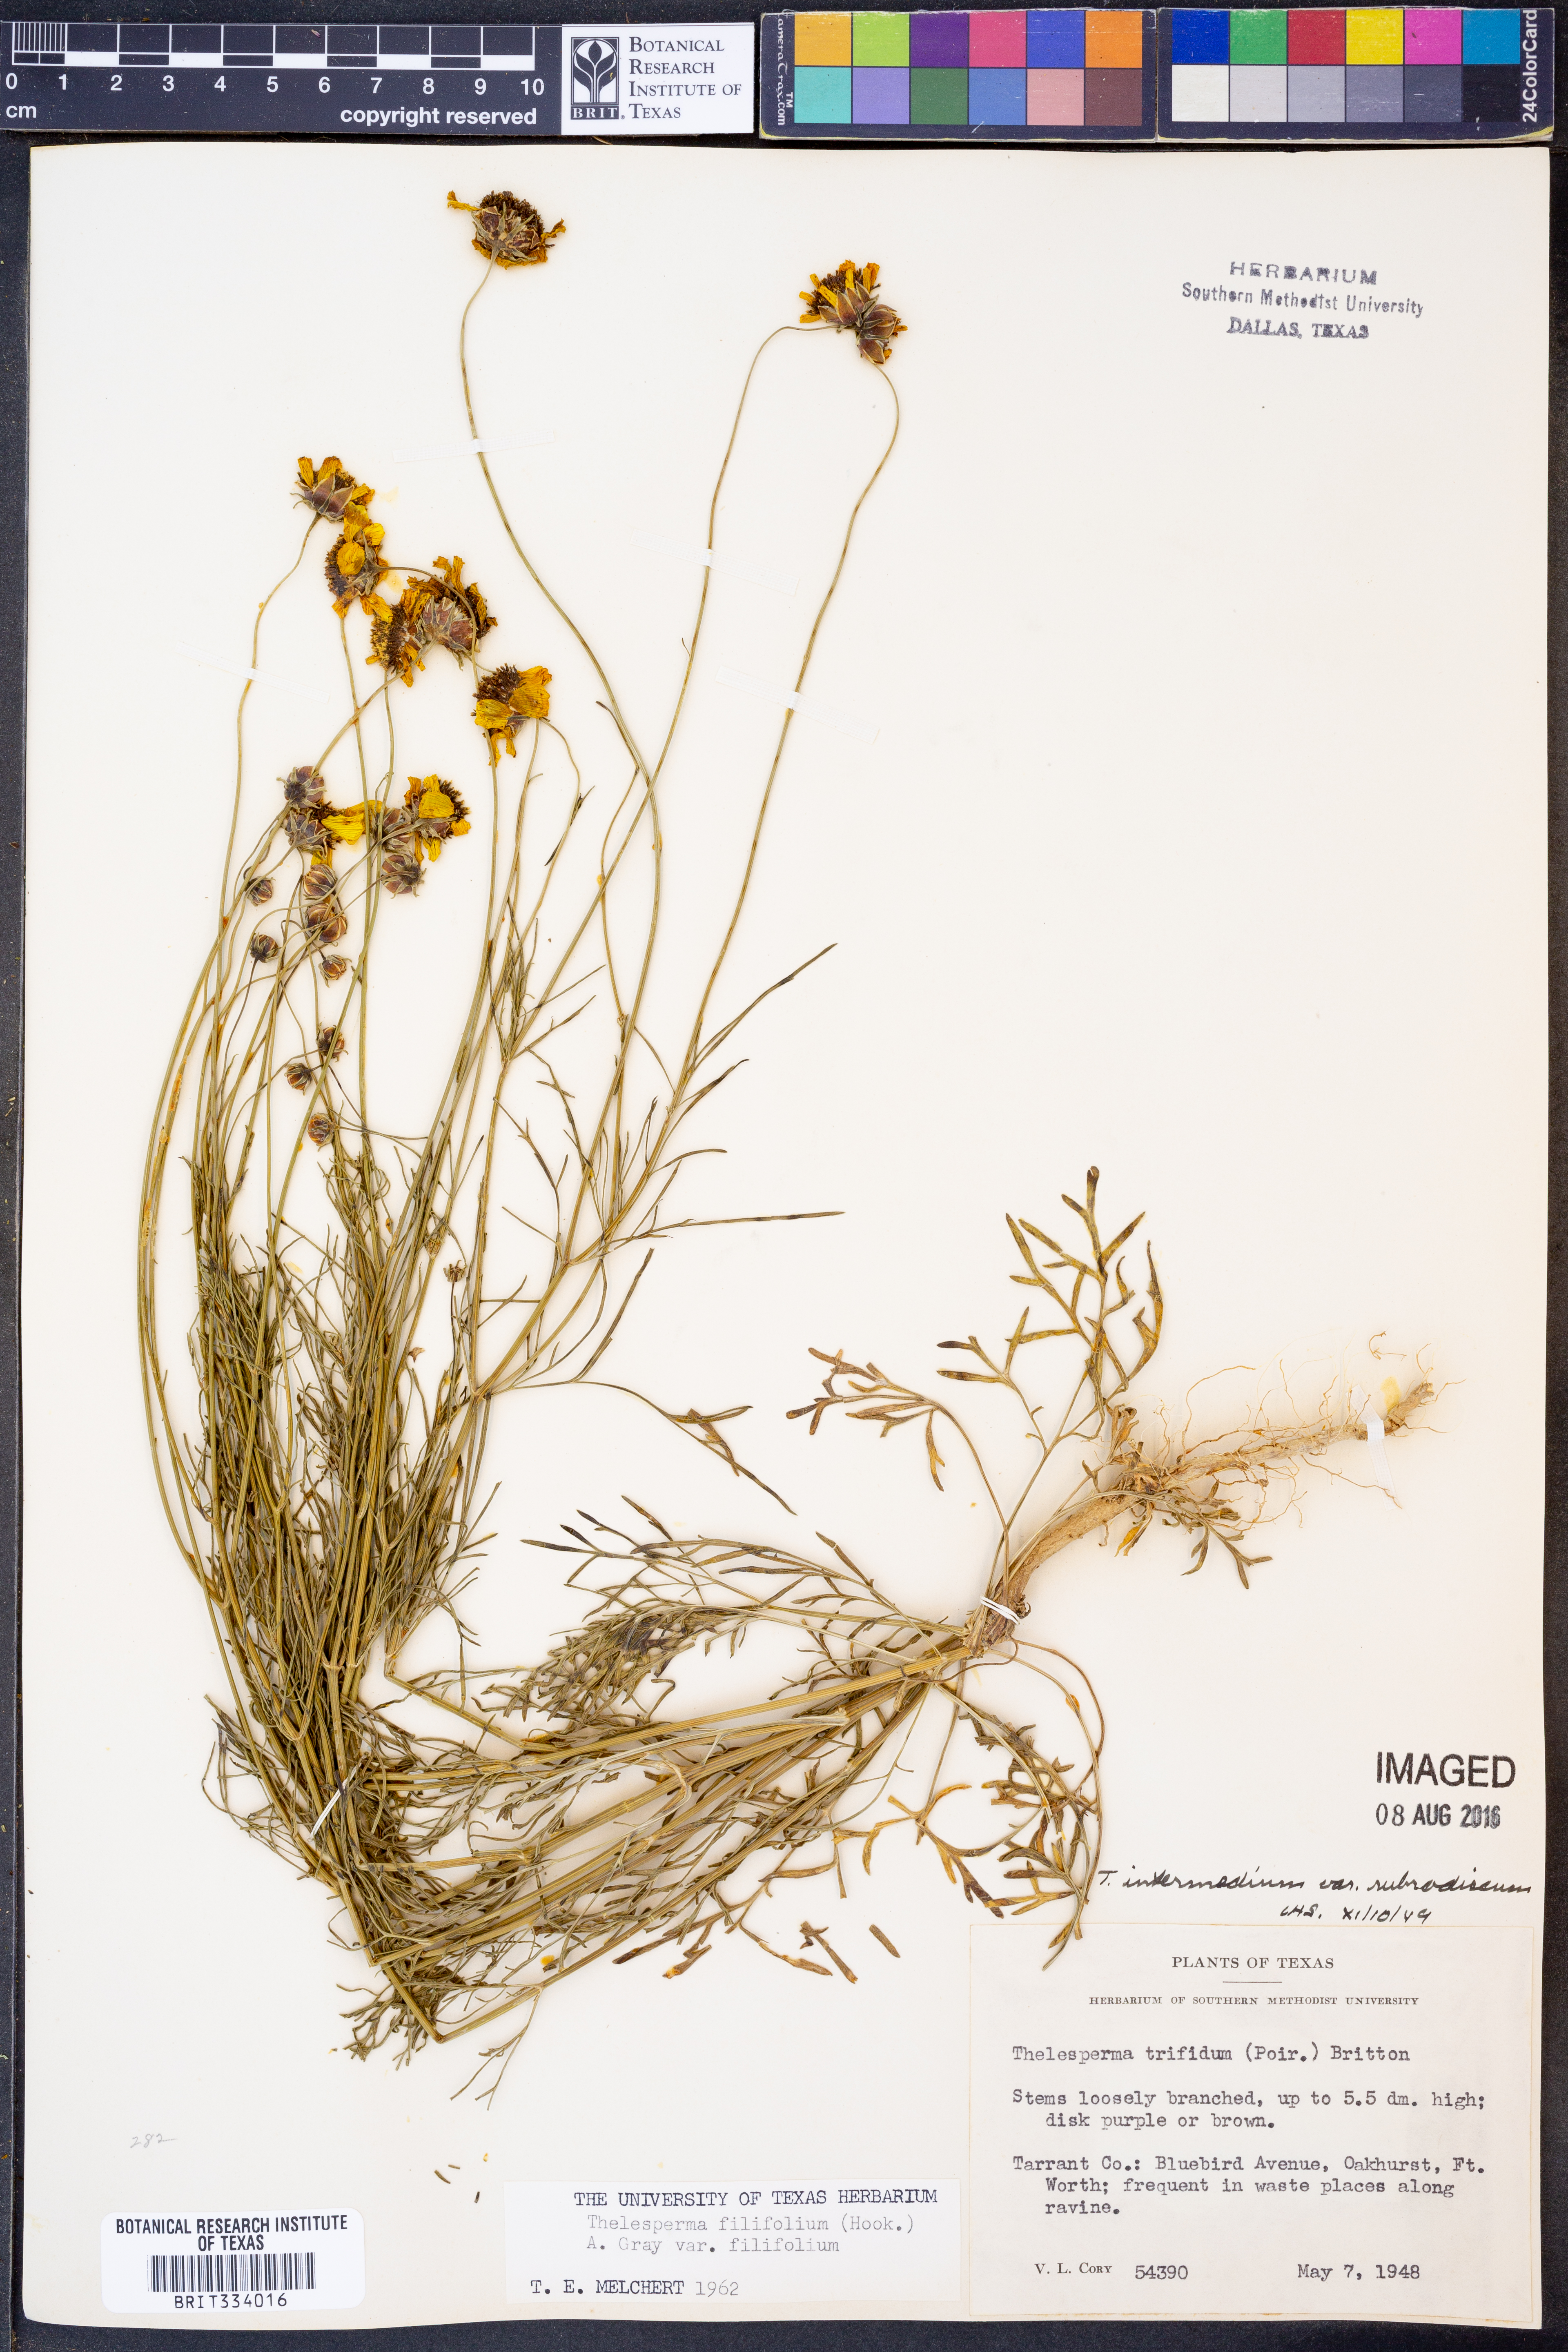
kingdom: Plantae
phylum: Tracheophyta
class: Magnoliopsida
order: Asterales
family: Asteraceae
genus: Thelesperma
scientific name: Thelesperma filifolium
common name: Stiff greenthread
